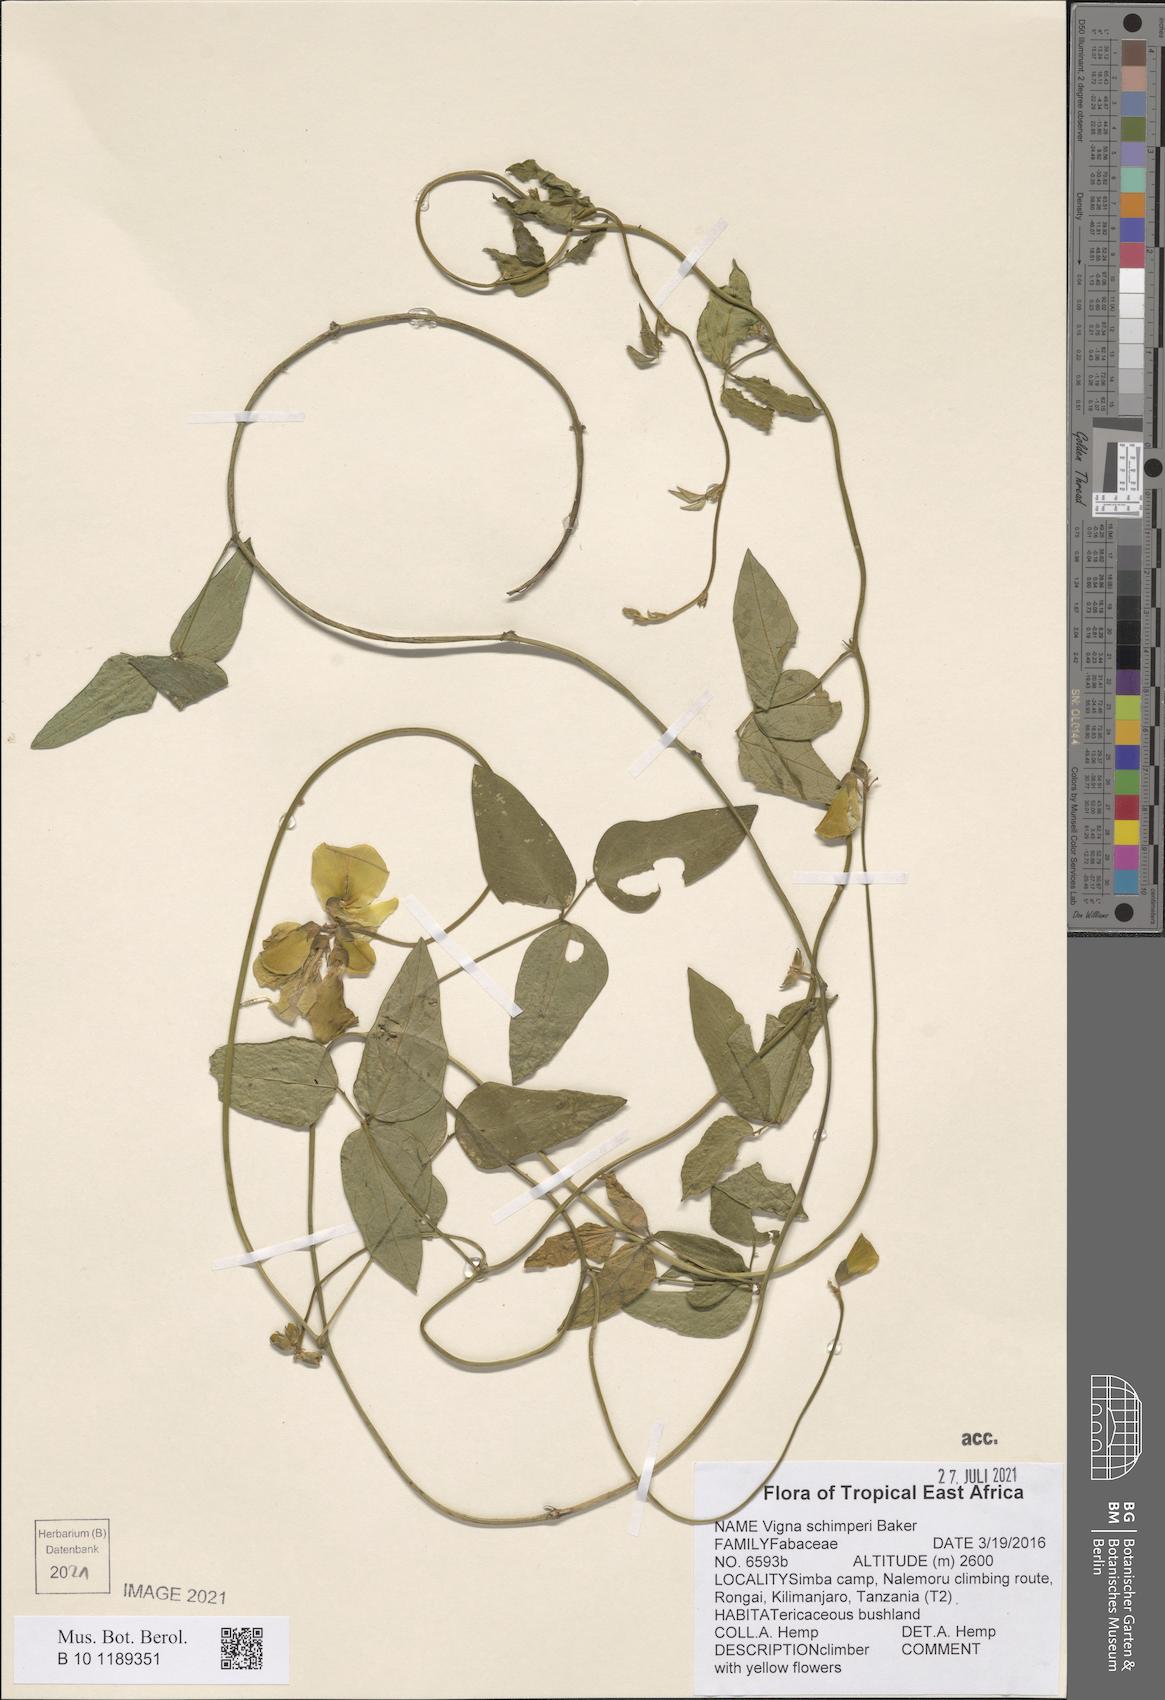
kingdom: Plantae
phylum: Tracheophyta
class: Magnoliopsida
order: Fabales
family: Fabaceae
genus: Vigna
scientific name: Vigna schimperi
